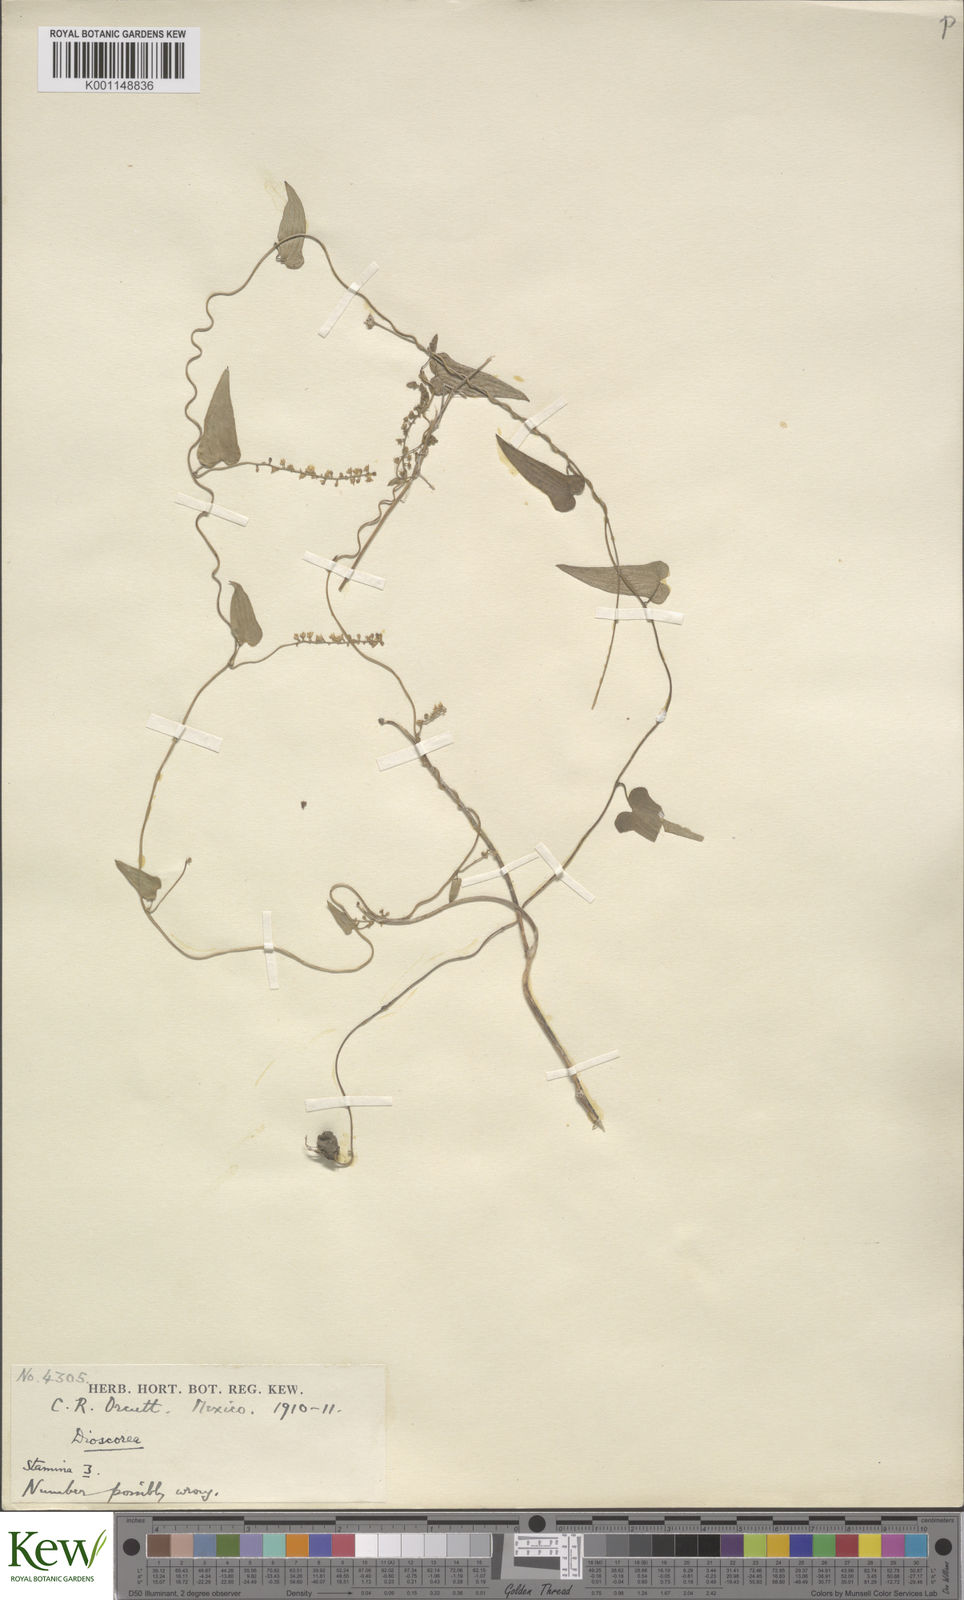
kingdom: Plantae
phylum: Tracheophyta
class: Liliopsida
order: Dioscoreales
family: Dioscoreaceae
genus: Dioscorea
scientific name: Dioscorea convolvulacea
